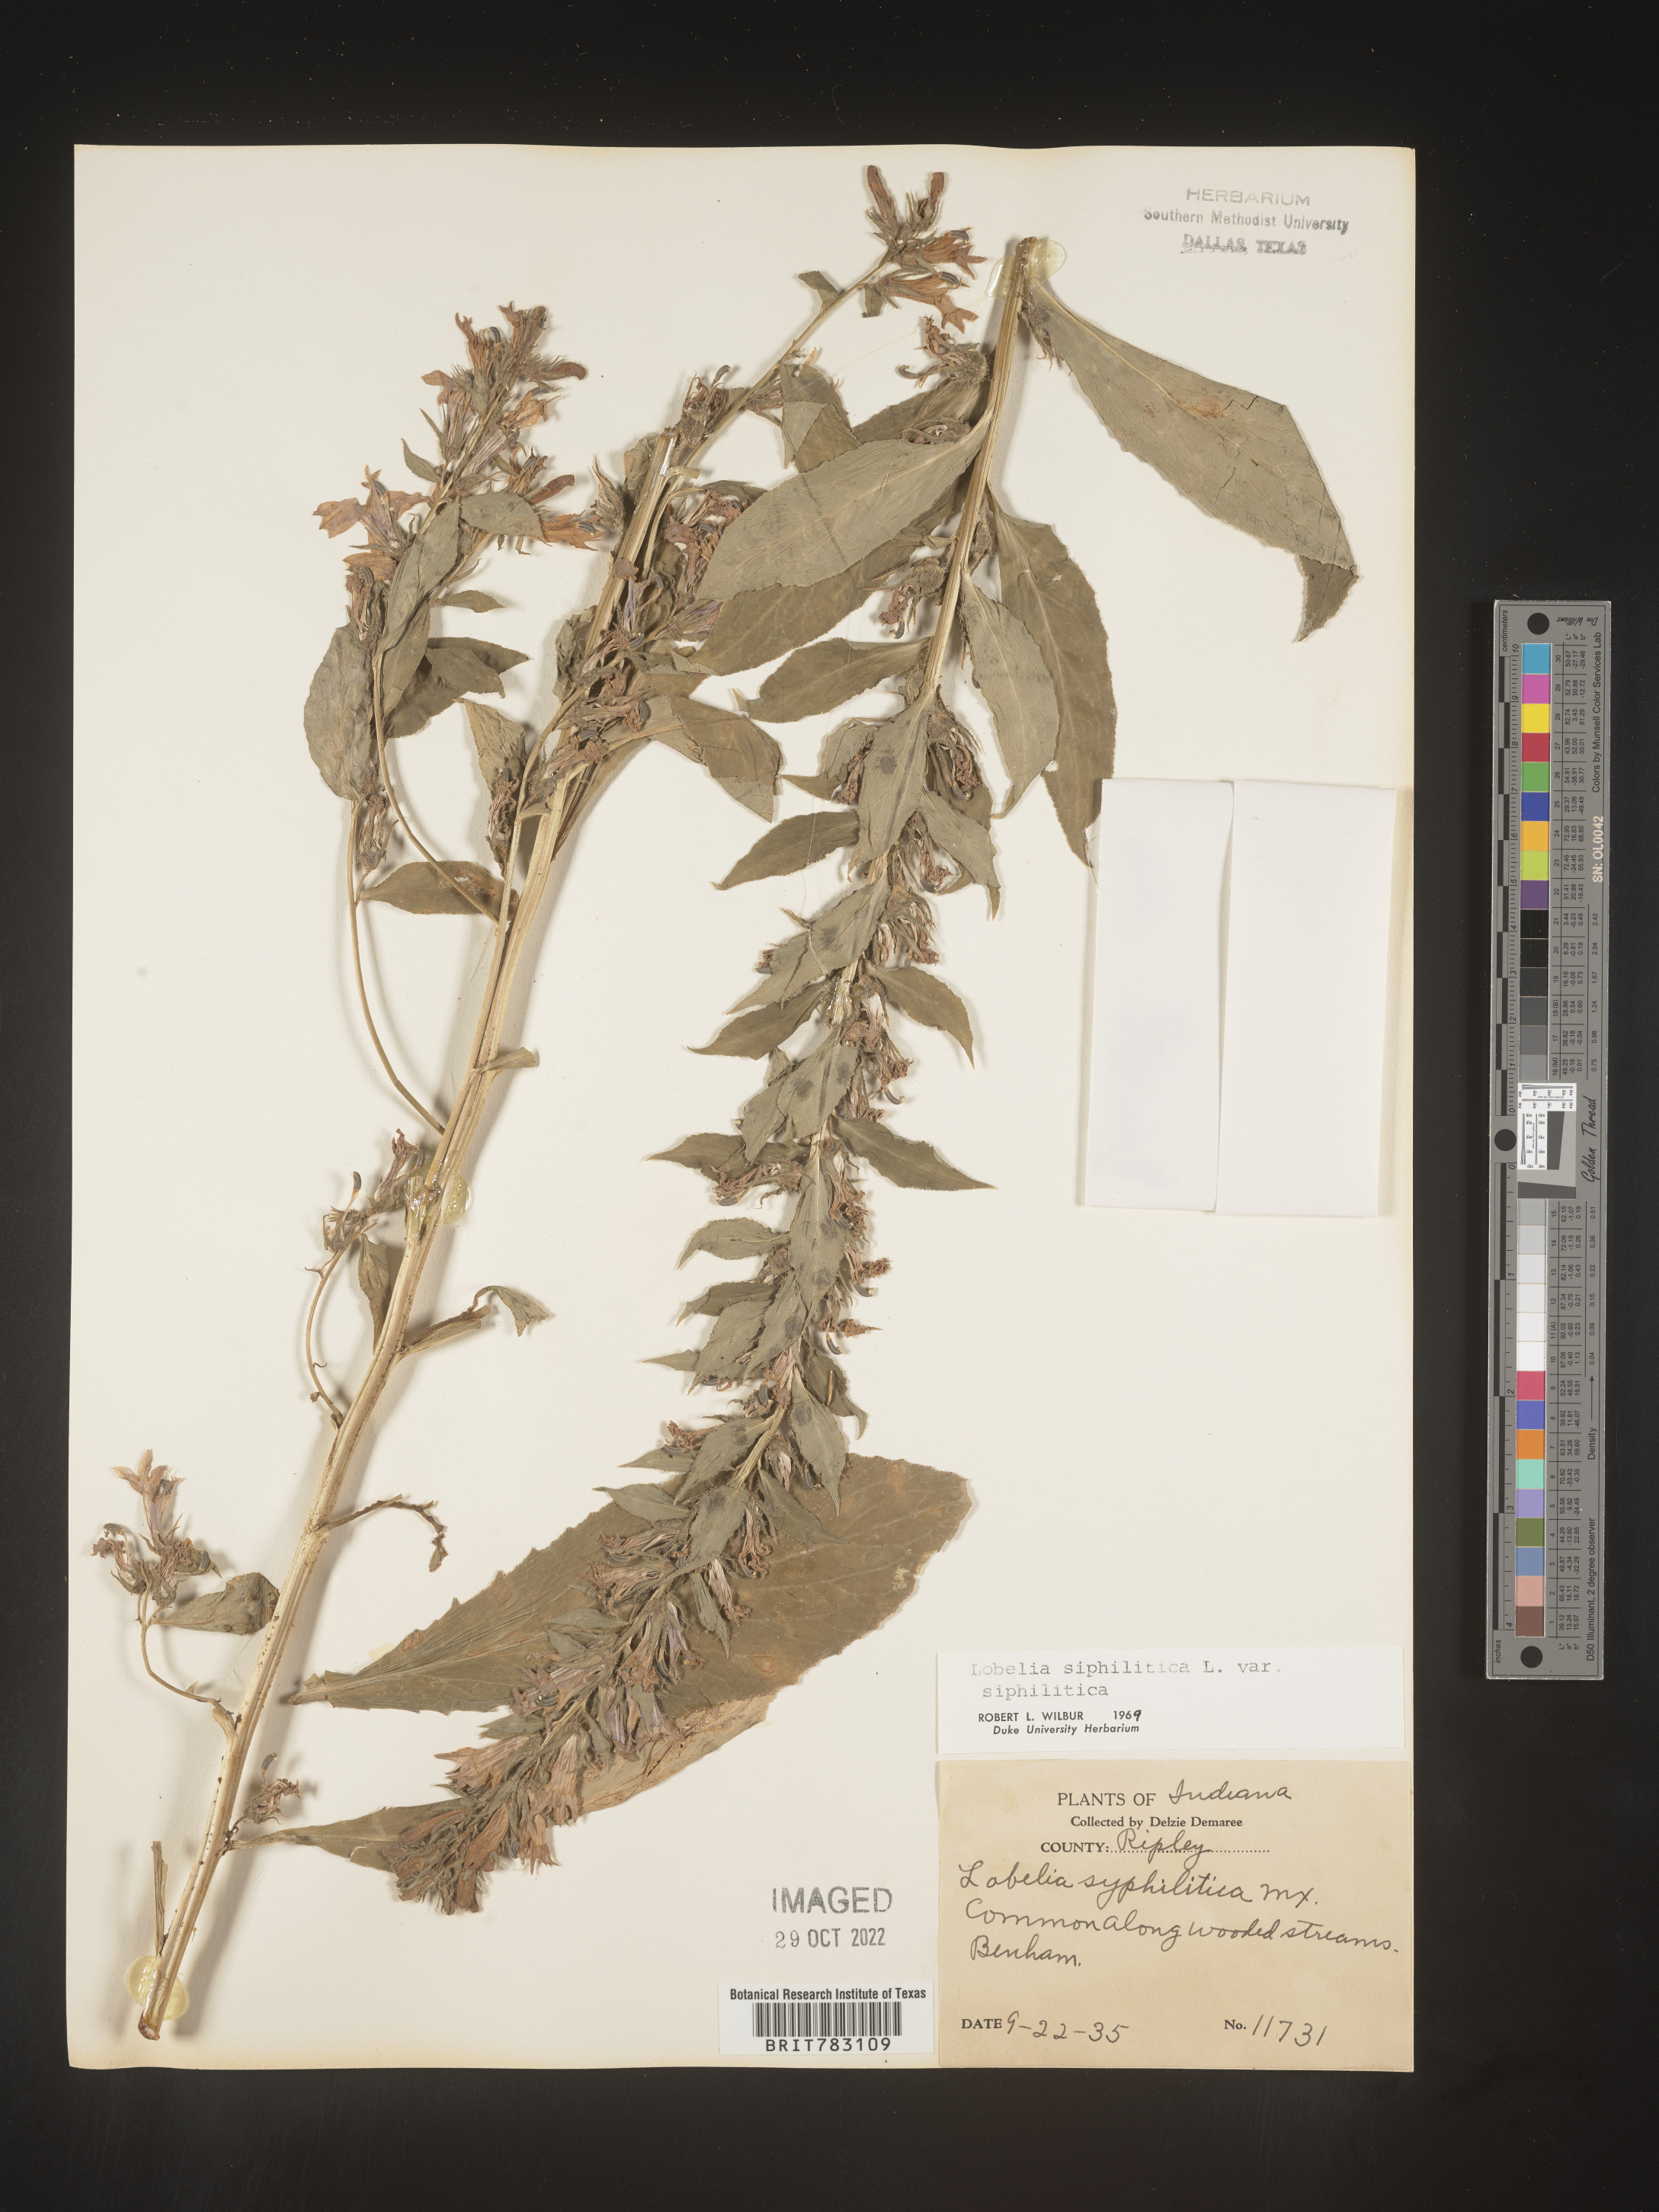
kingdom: Plantae
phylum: Tracheophyta
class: Magnoliopsida
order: Asterales
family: Campanulaceae
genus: Lobelia
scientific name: Lobelia siphilitica
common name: Great lobelia
